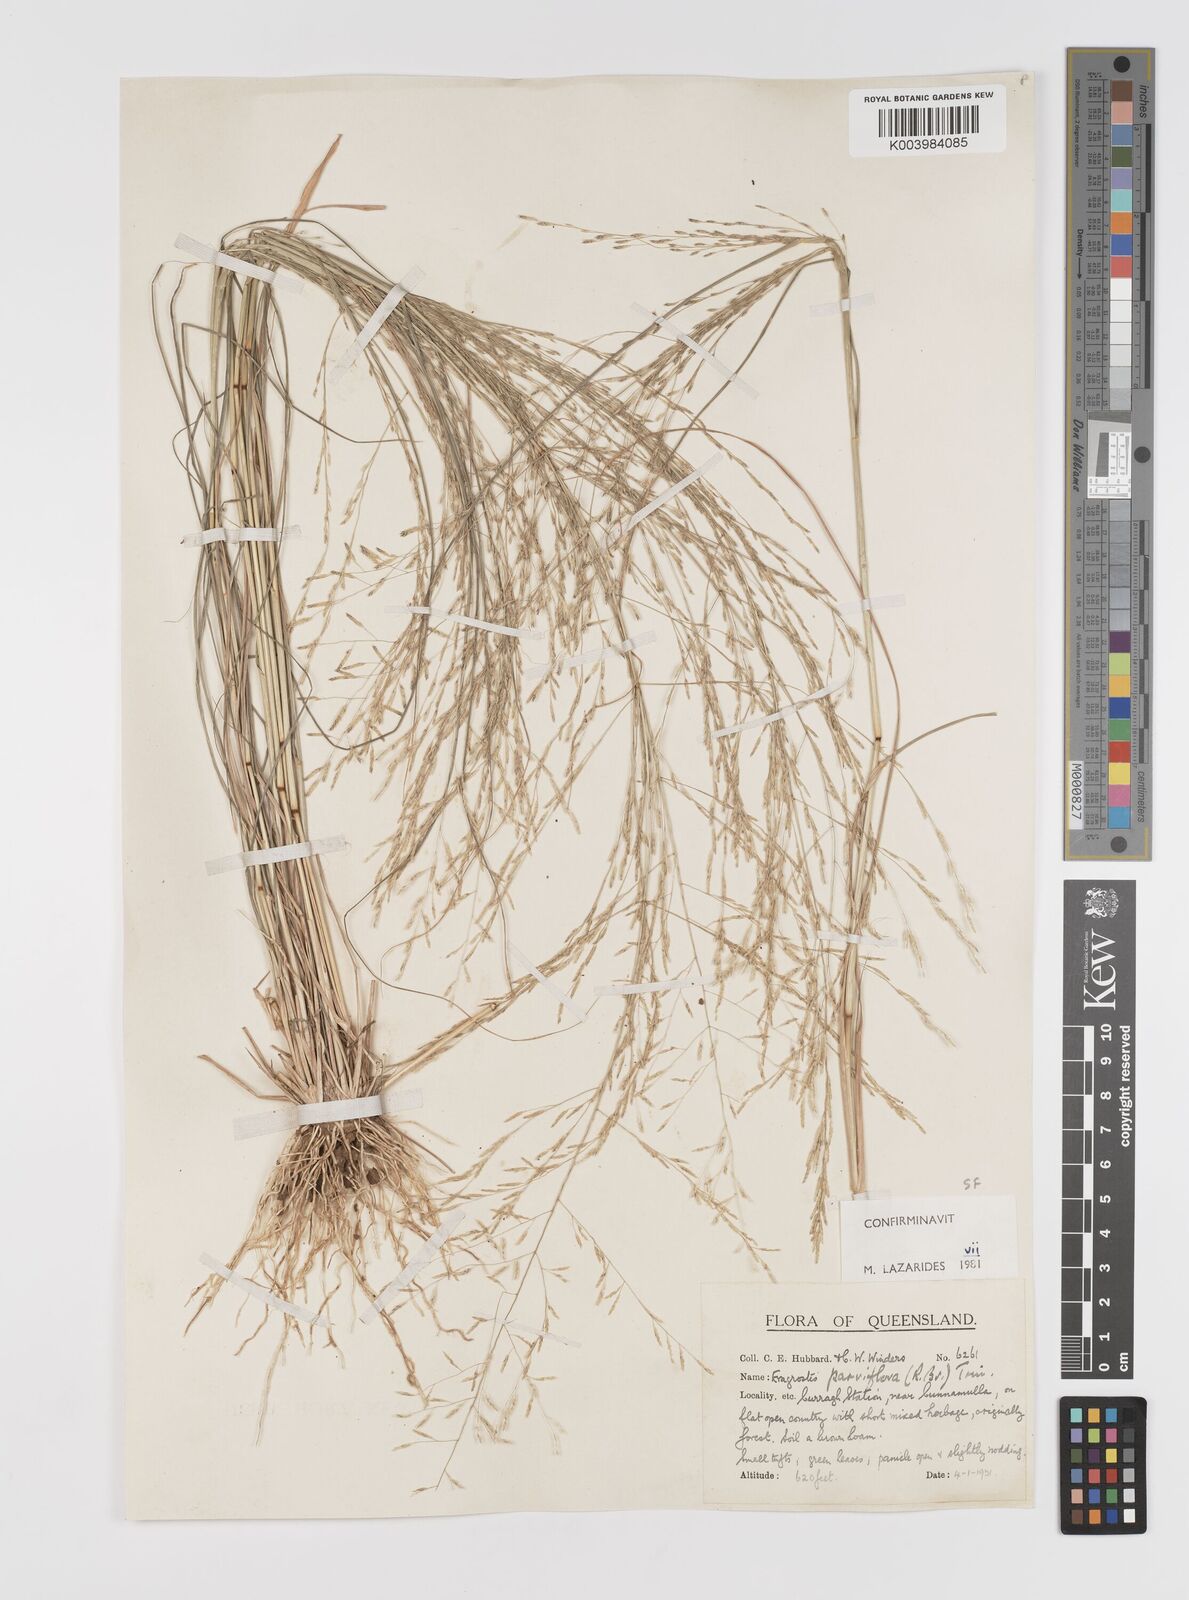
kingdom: Plantae
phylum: Tracheophyta
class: Liliopsida
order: Poales
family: Poaceae
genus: Eragrostis
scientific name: Eragrostis parviflora
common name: Weeping love-grass
